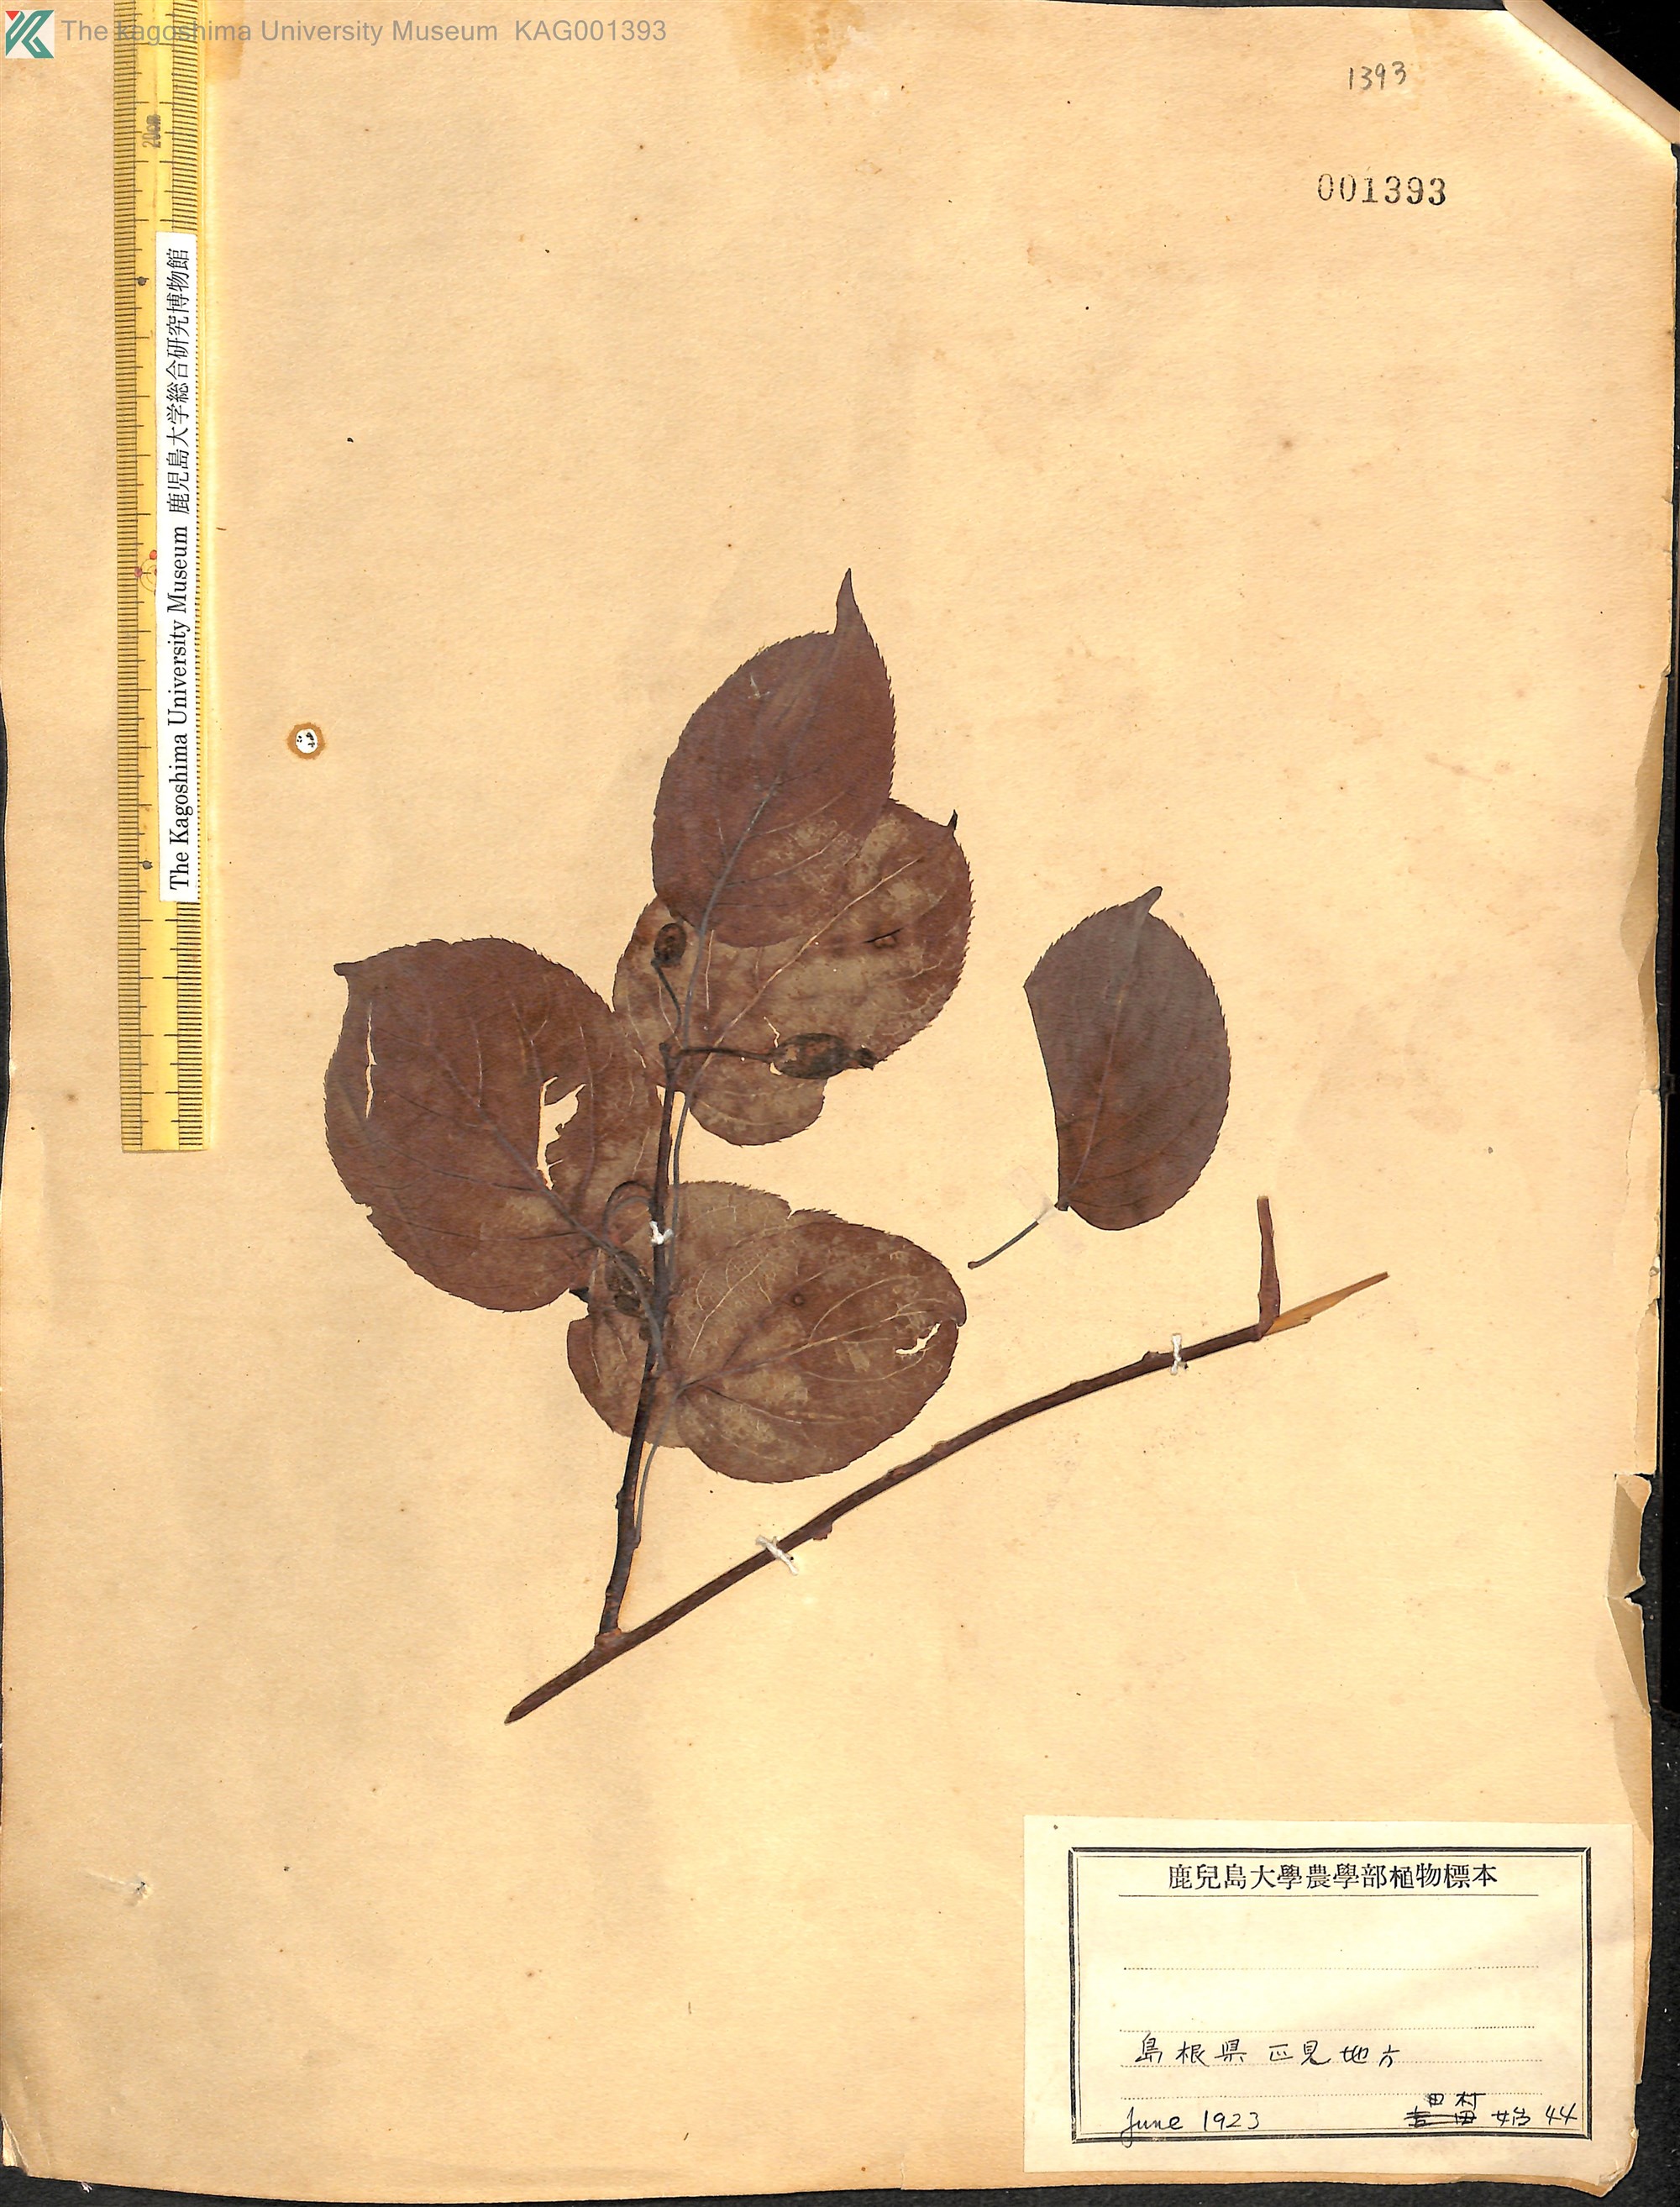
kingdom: Plantae
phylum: Tracheophyta
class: Magnoliopsida
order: Ericales
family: Actinidiaceae
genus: Actinidia
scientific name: Actinidia
